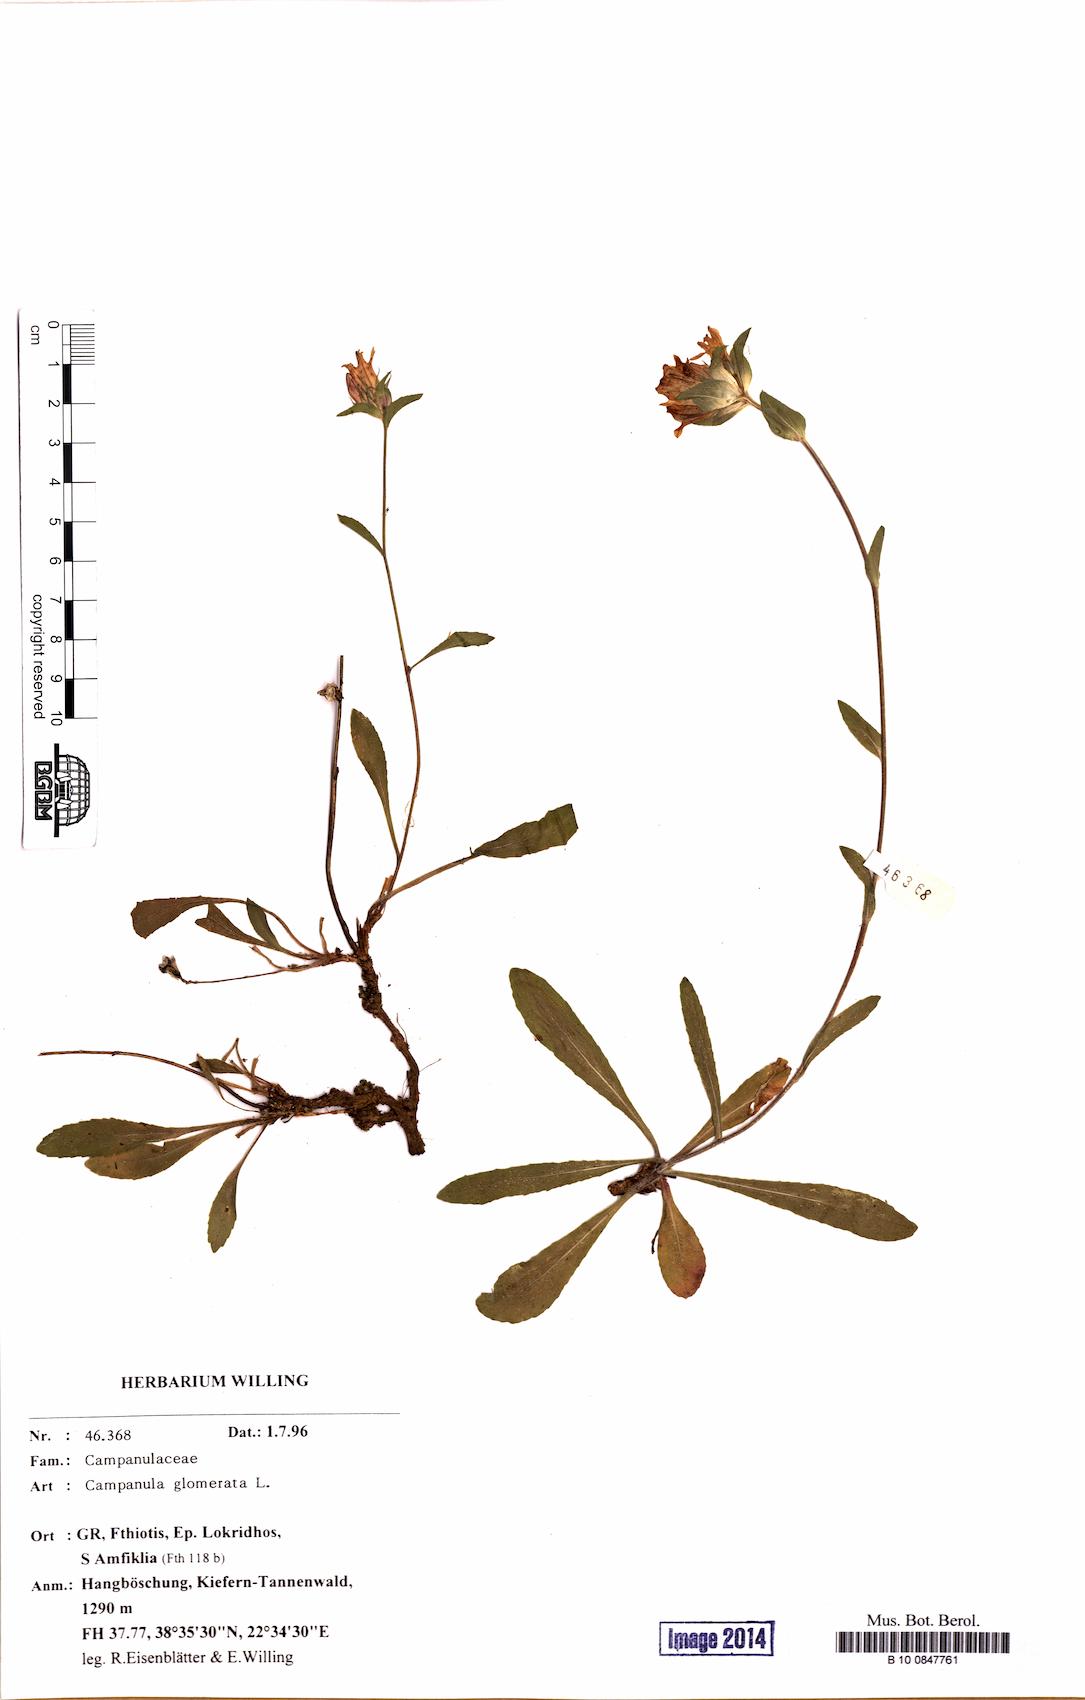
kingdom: Plantae
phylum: Tracheophyta
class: Magnoliopsida
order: Asterales
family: Campanulaceae
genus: Campanula
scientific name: Campanula glomerata
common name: Clustered bellflower
